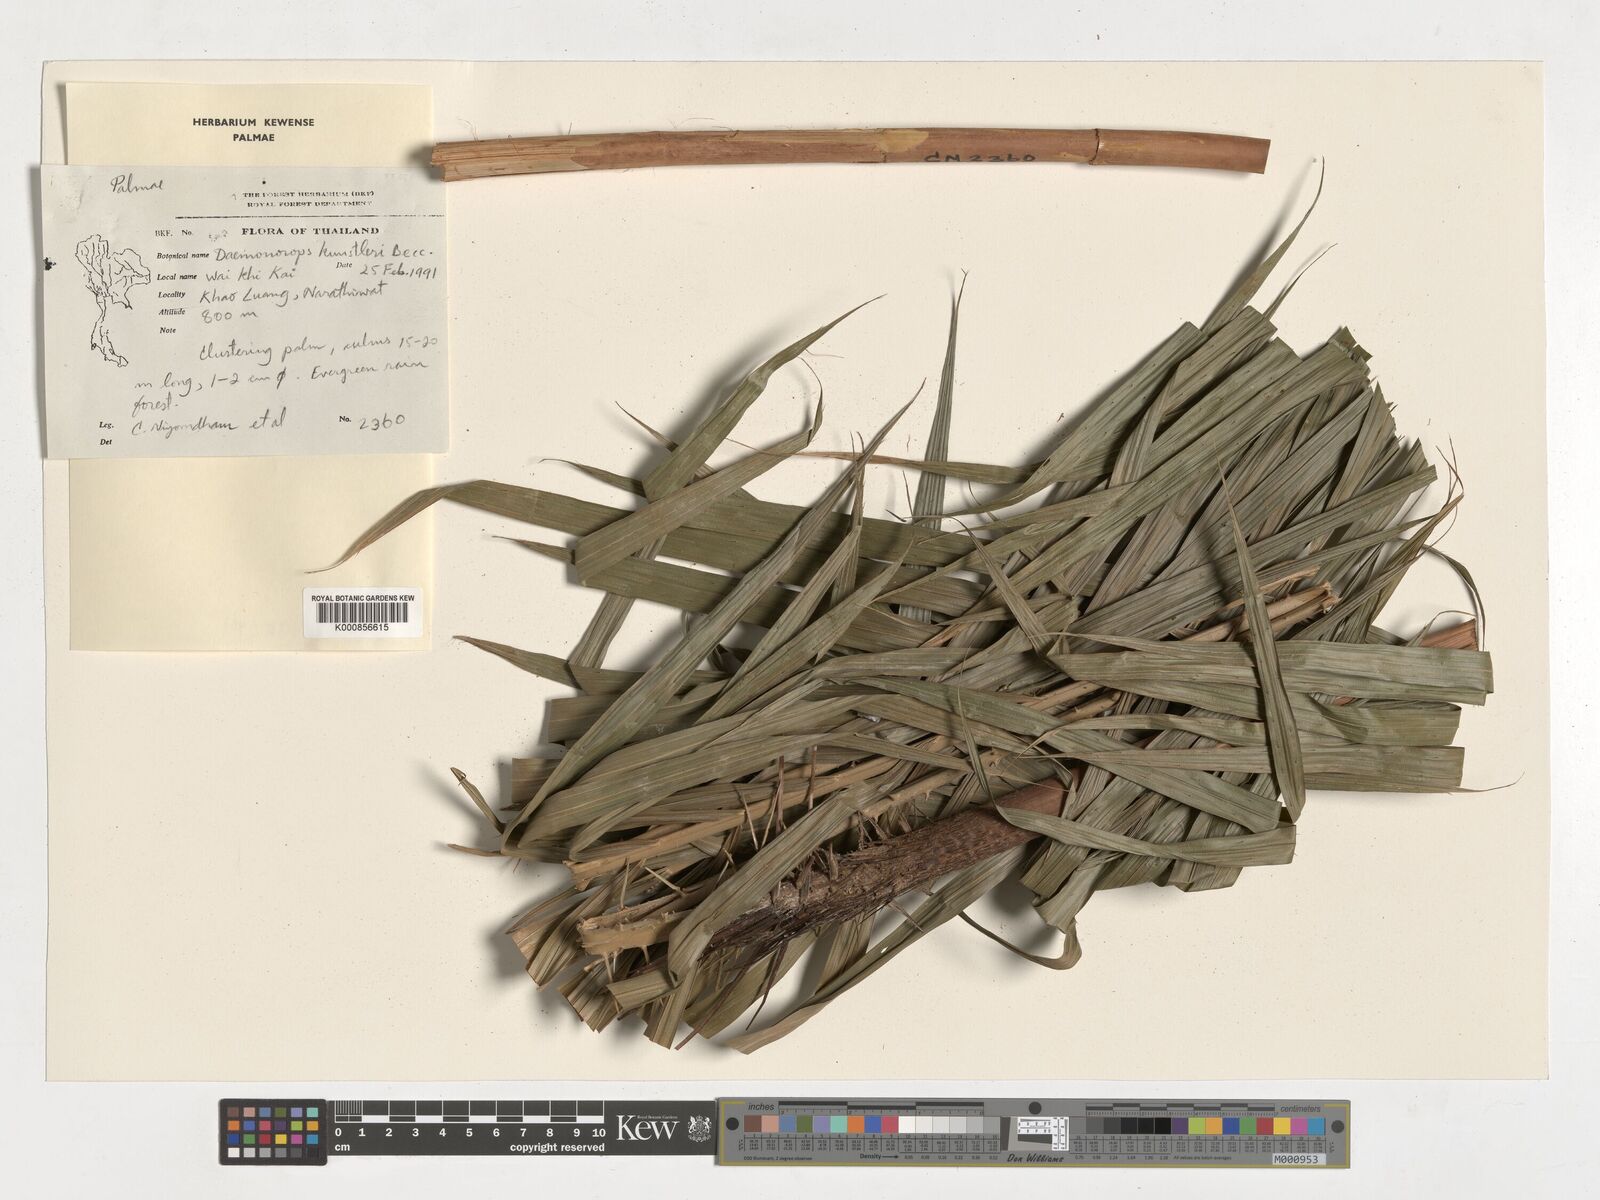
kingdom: Plantae
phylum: Tracheophyta
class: Liliopsida
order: Arecales
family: Arecaceae
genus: Calamus
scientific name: Calamus kunstleri
